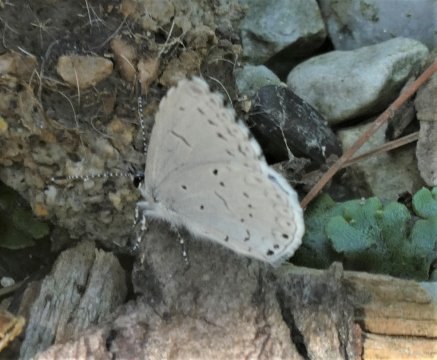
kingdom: Animalia
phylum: Arthropoda
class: Insecta
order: Lepidoptera
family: Lycaenidae
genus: Cyaniris
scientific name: Cyaniris neglecta
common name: Summer Azure
